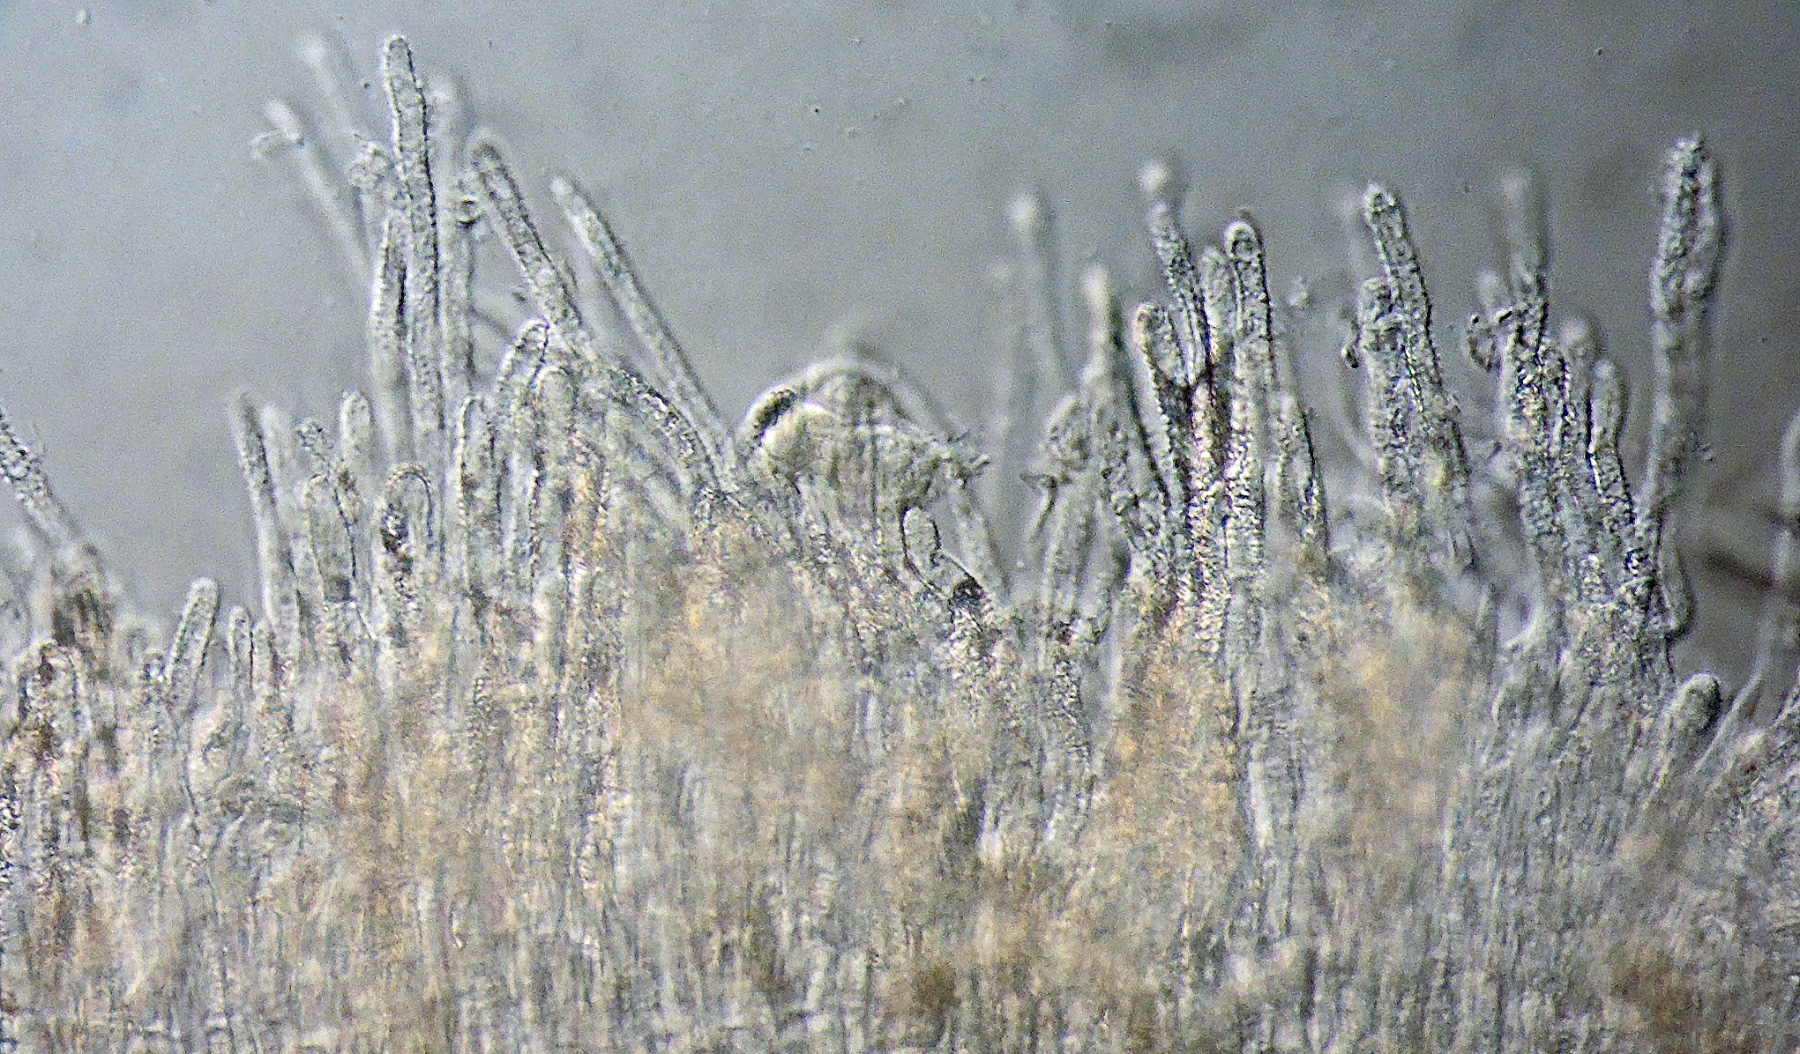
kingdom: Fungi
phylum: Ascomycota
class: Leotiomycetes
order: Helotiales
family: Lachnaceae
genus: Lachnum
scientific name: Lachnum controversum
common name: tagrør-frynseskive
